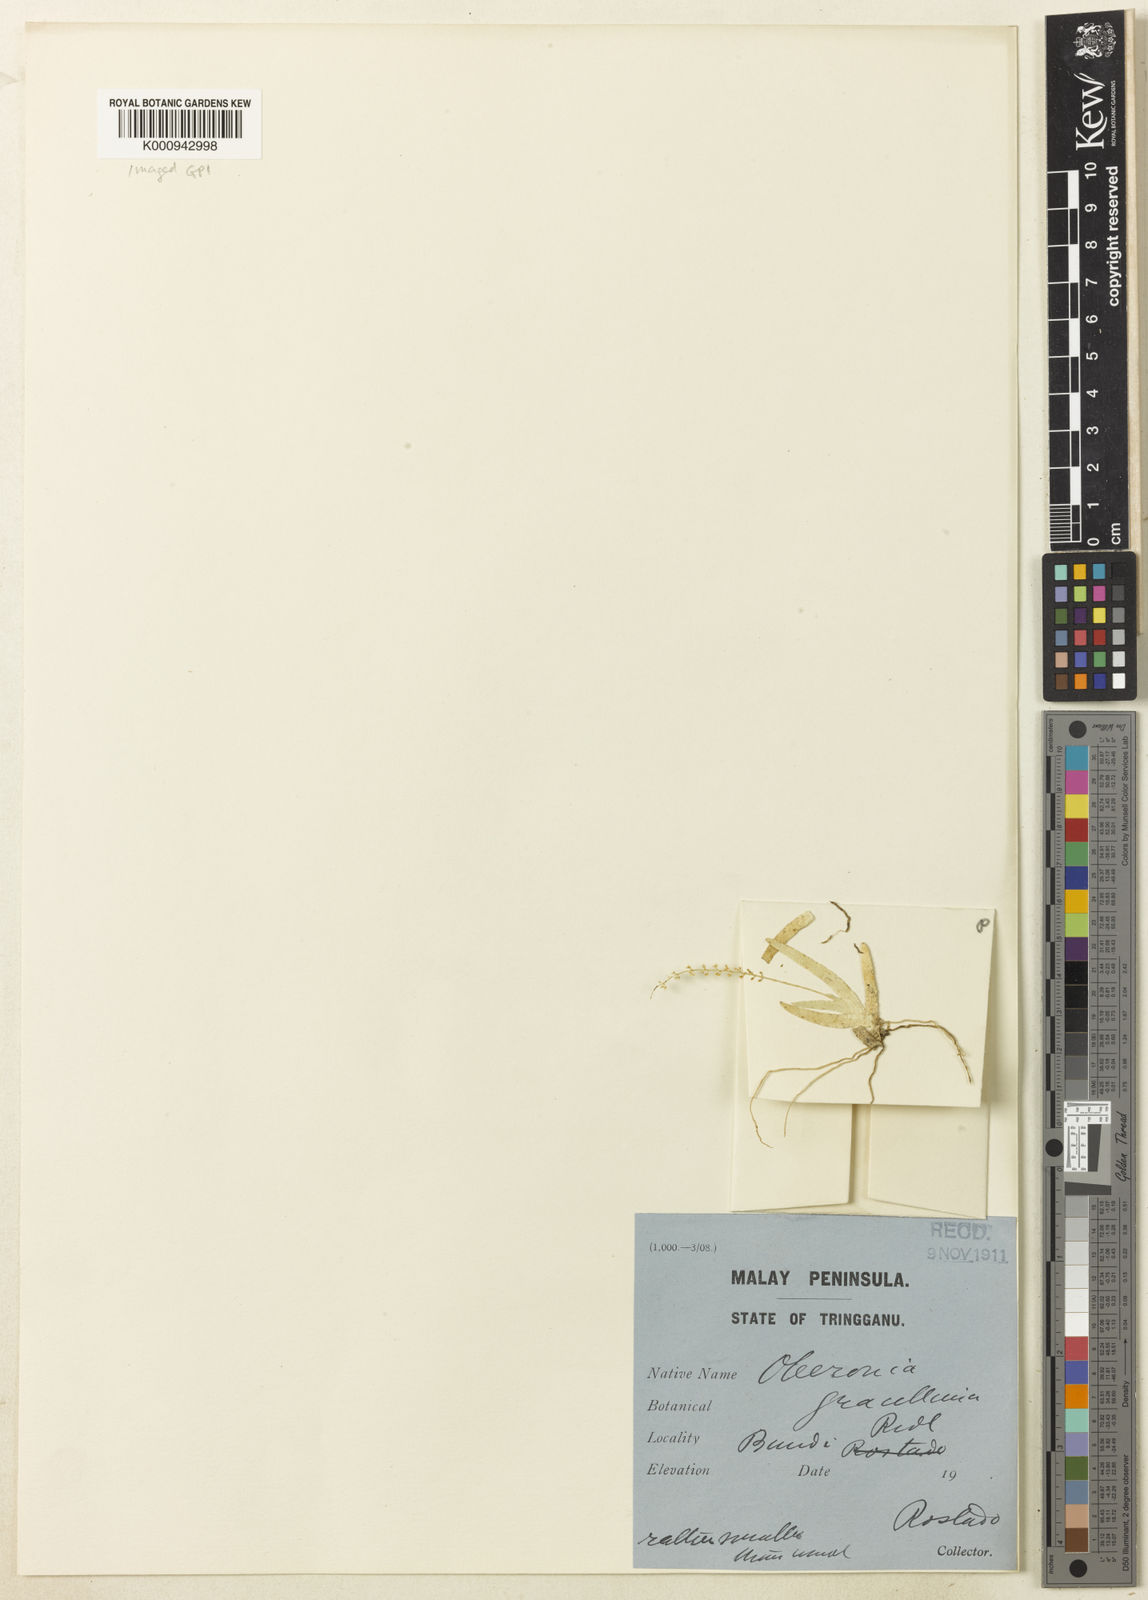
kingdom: Plantae
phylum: Tracheophyta
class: Liliopsida
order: Asparagales
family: Orchidaceae
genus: Oberonia
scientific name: Oberonia bertoldi
